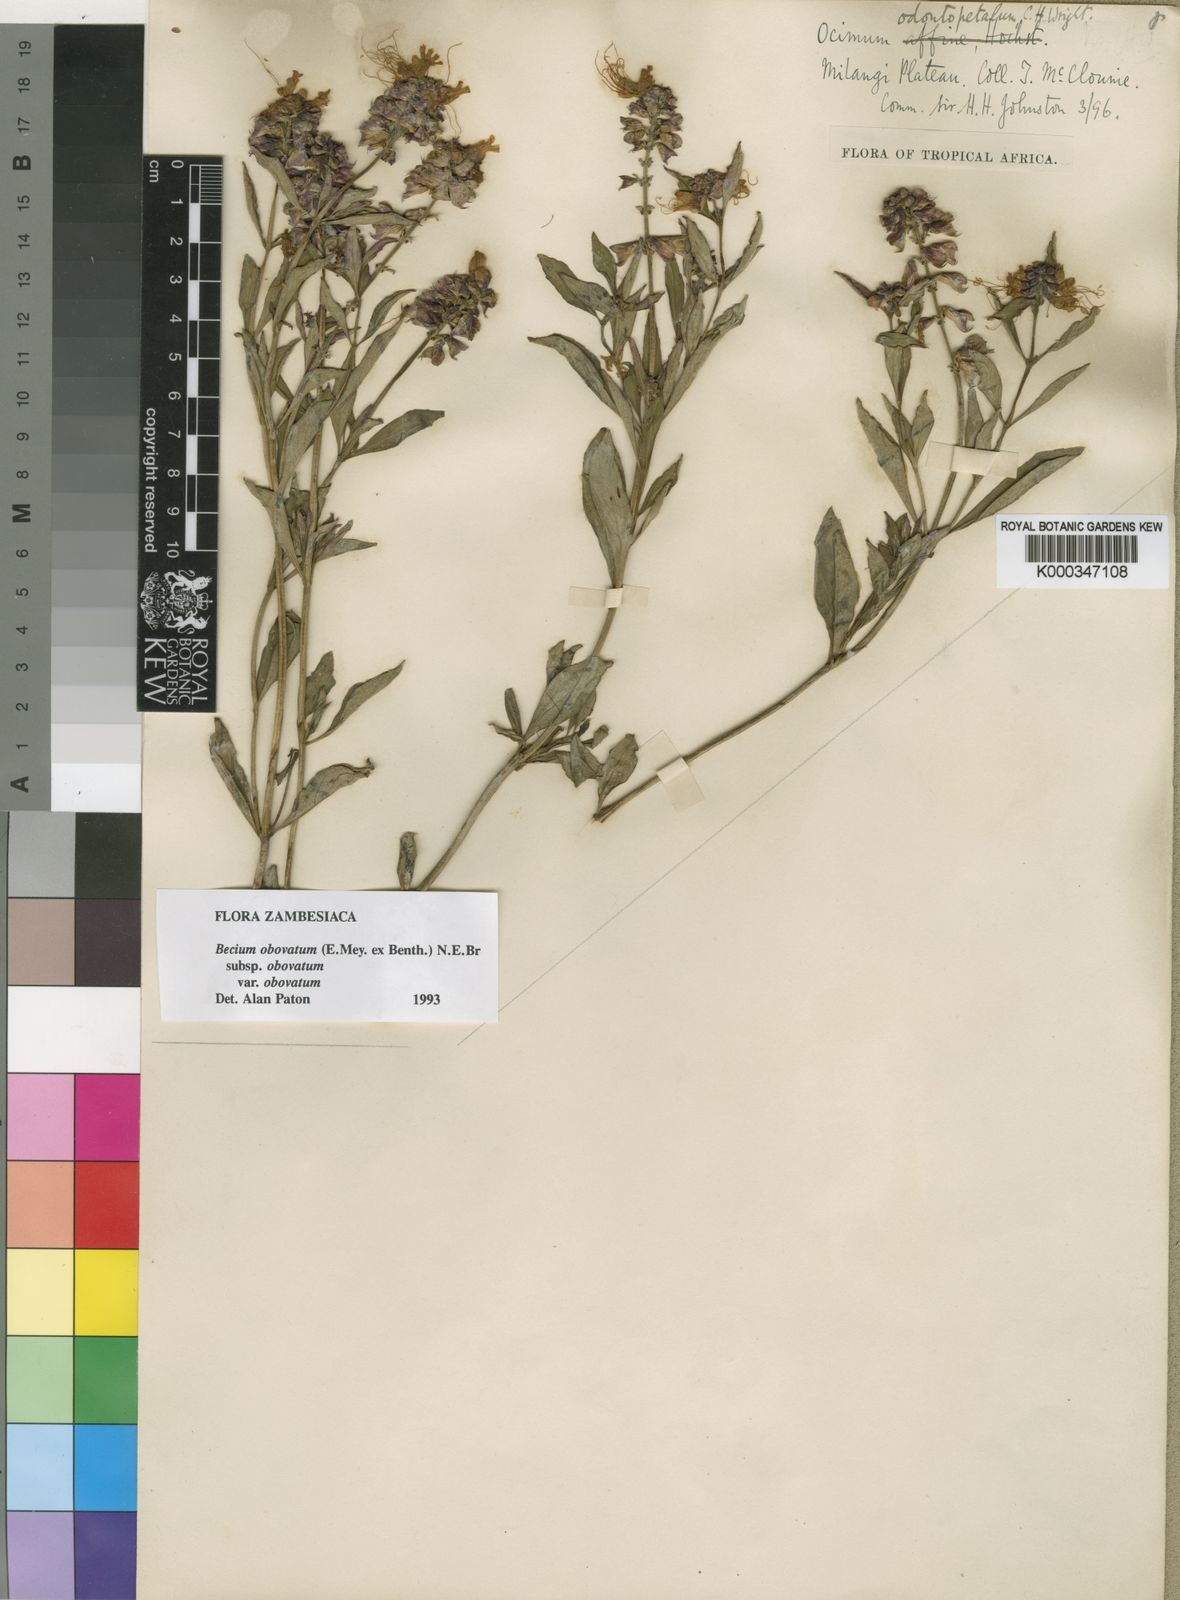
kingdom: Plantae
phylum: Tracheophyta
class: Magnoliopsida
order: Lamiales
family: Lamiaceae
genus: Ocimum
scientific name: Ocimum obovatum
